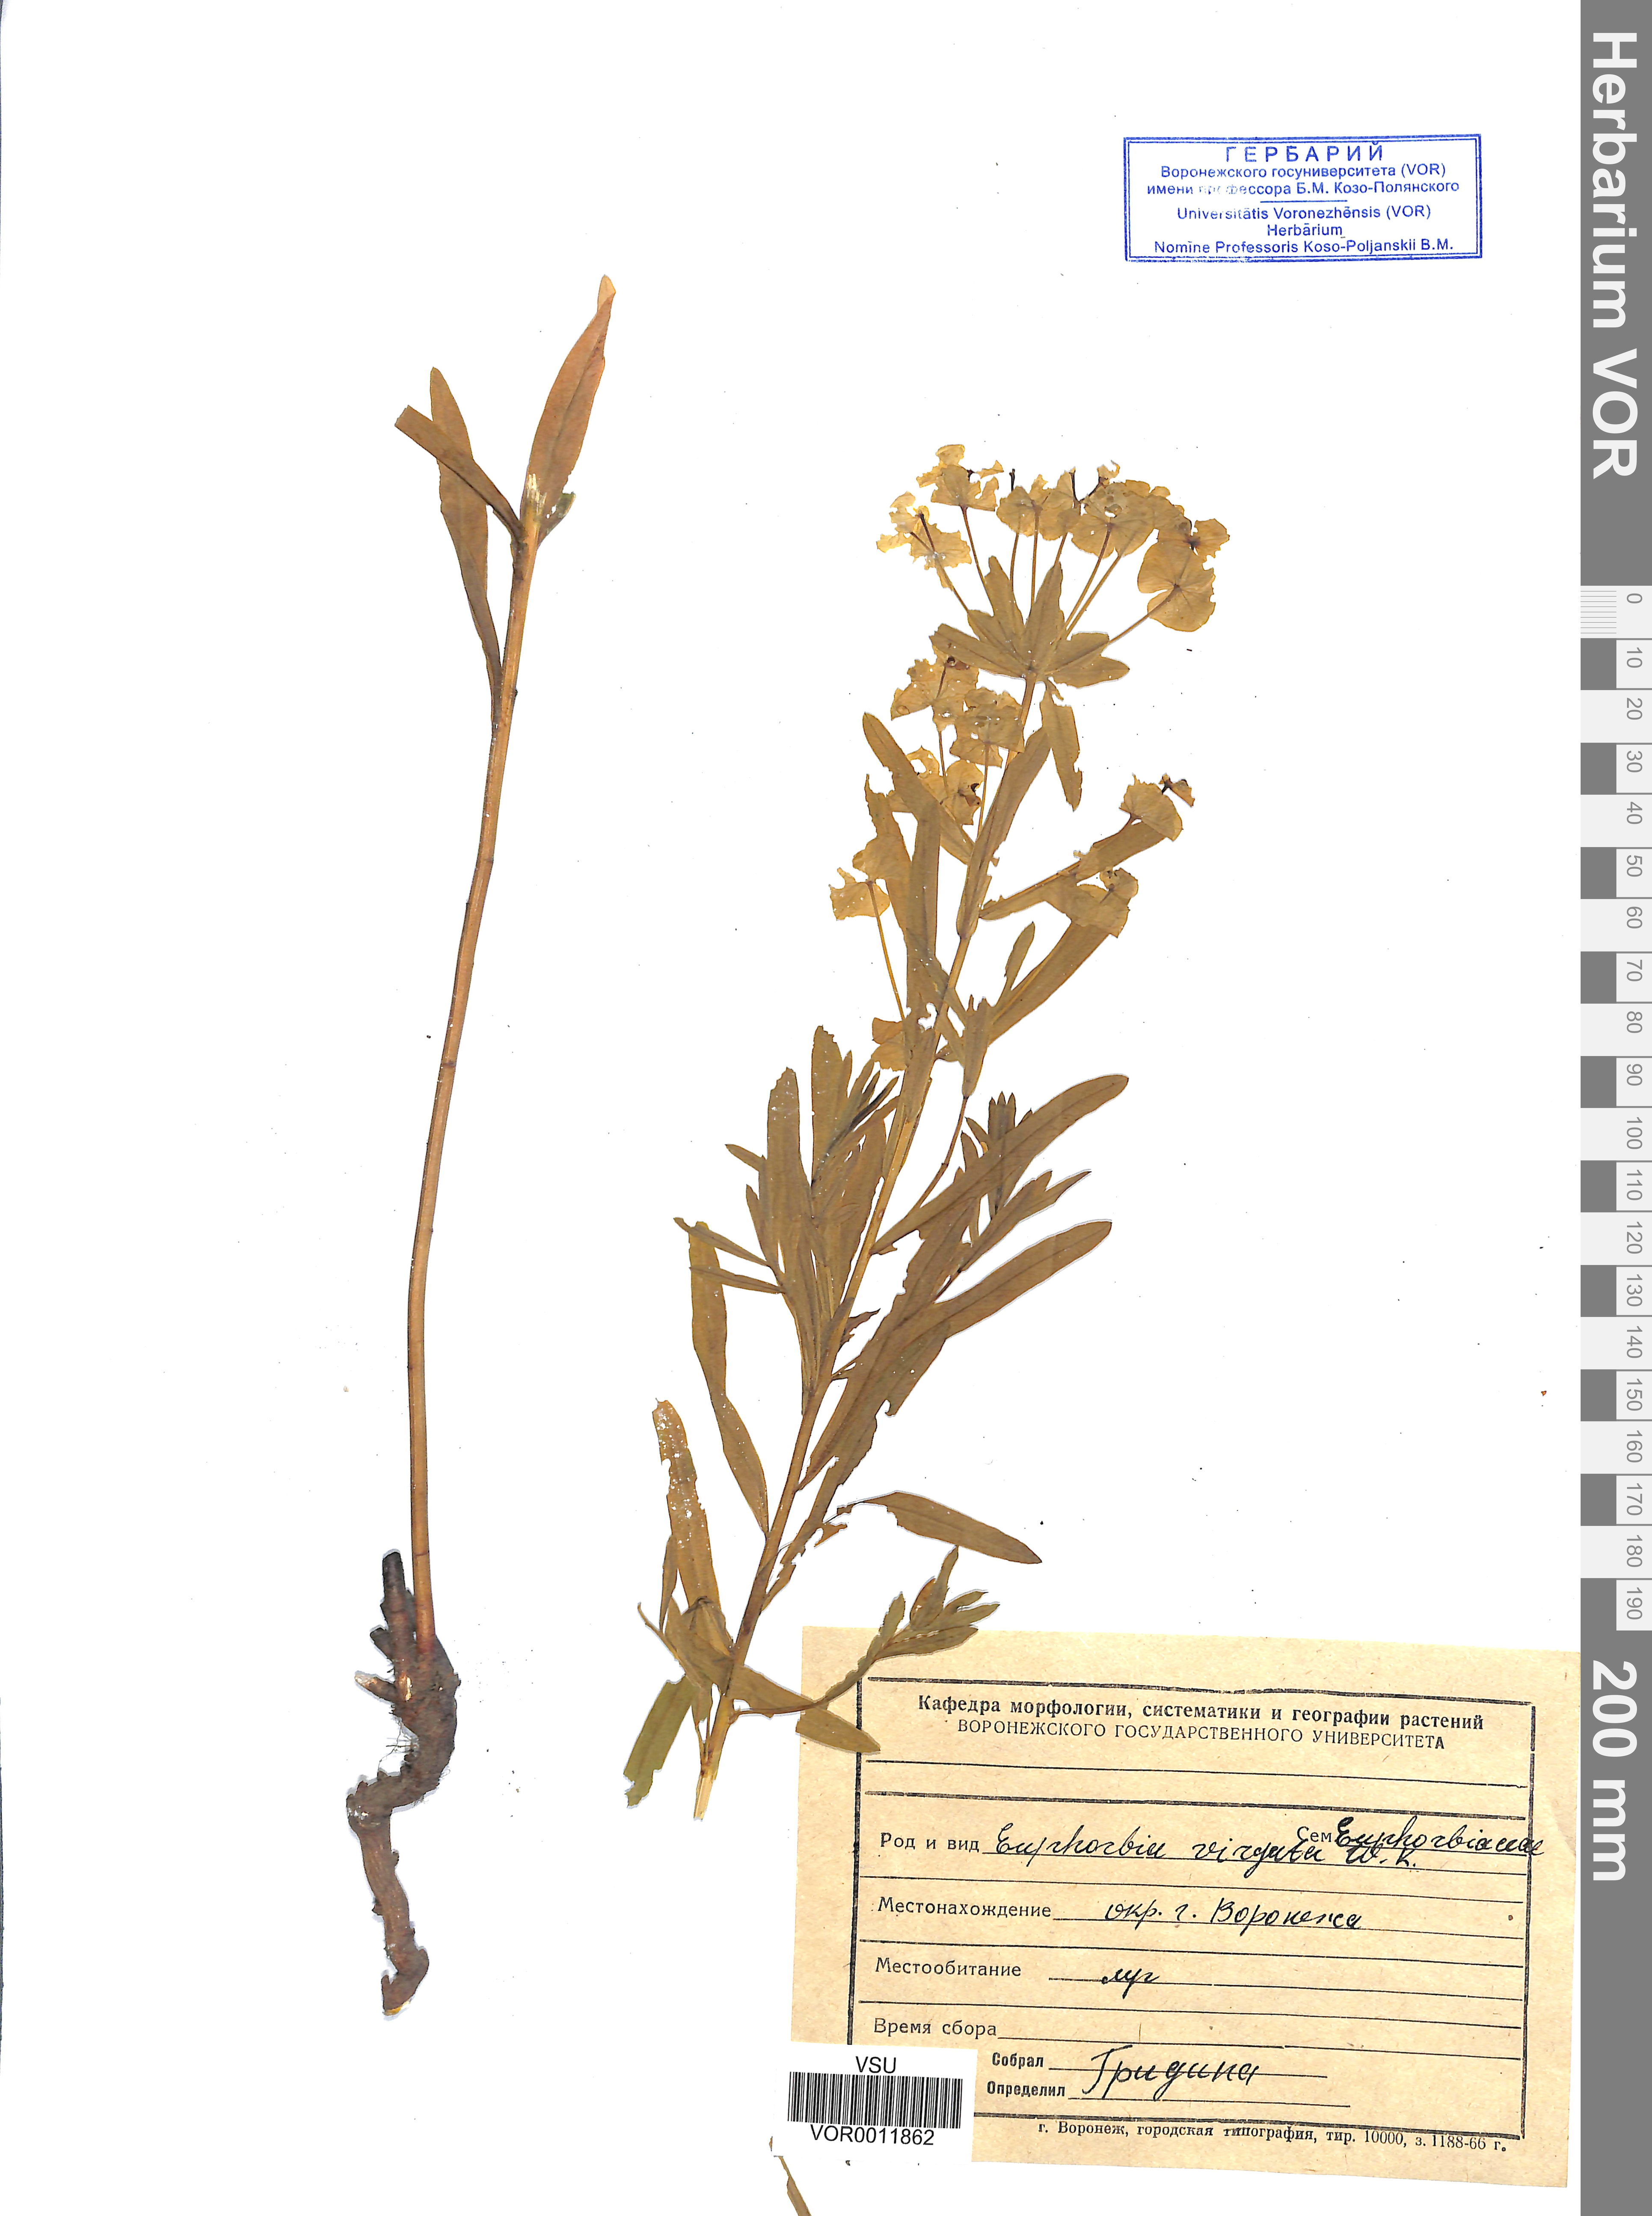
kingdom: Plantae
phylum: Tracheophyta
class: Magnoliopsida
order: Malpighiales
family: Euphorbiaceae
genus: Euphorbia
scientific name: Euphorbia virgata
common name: Leafy spurge
